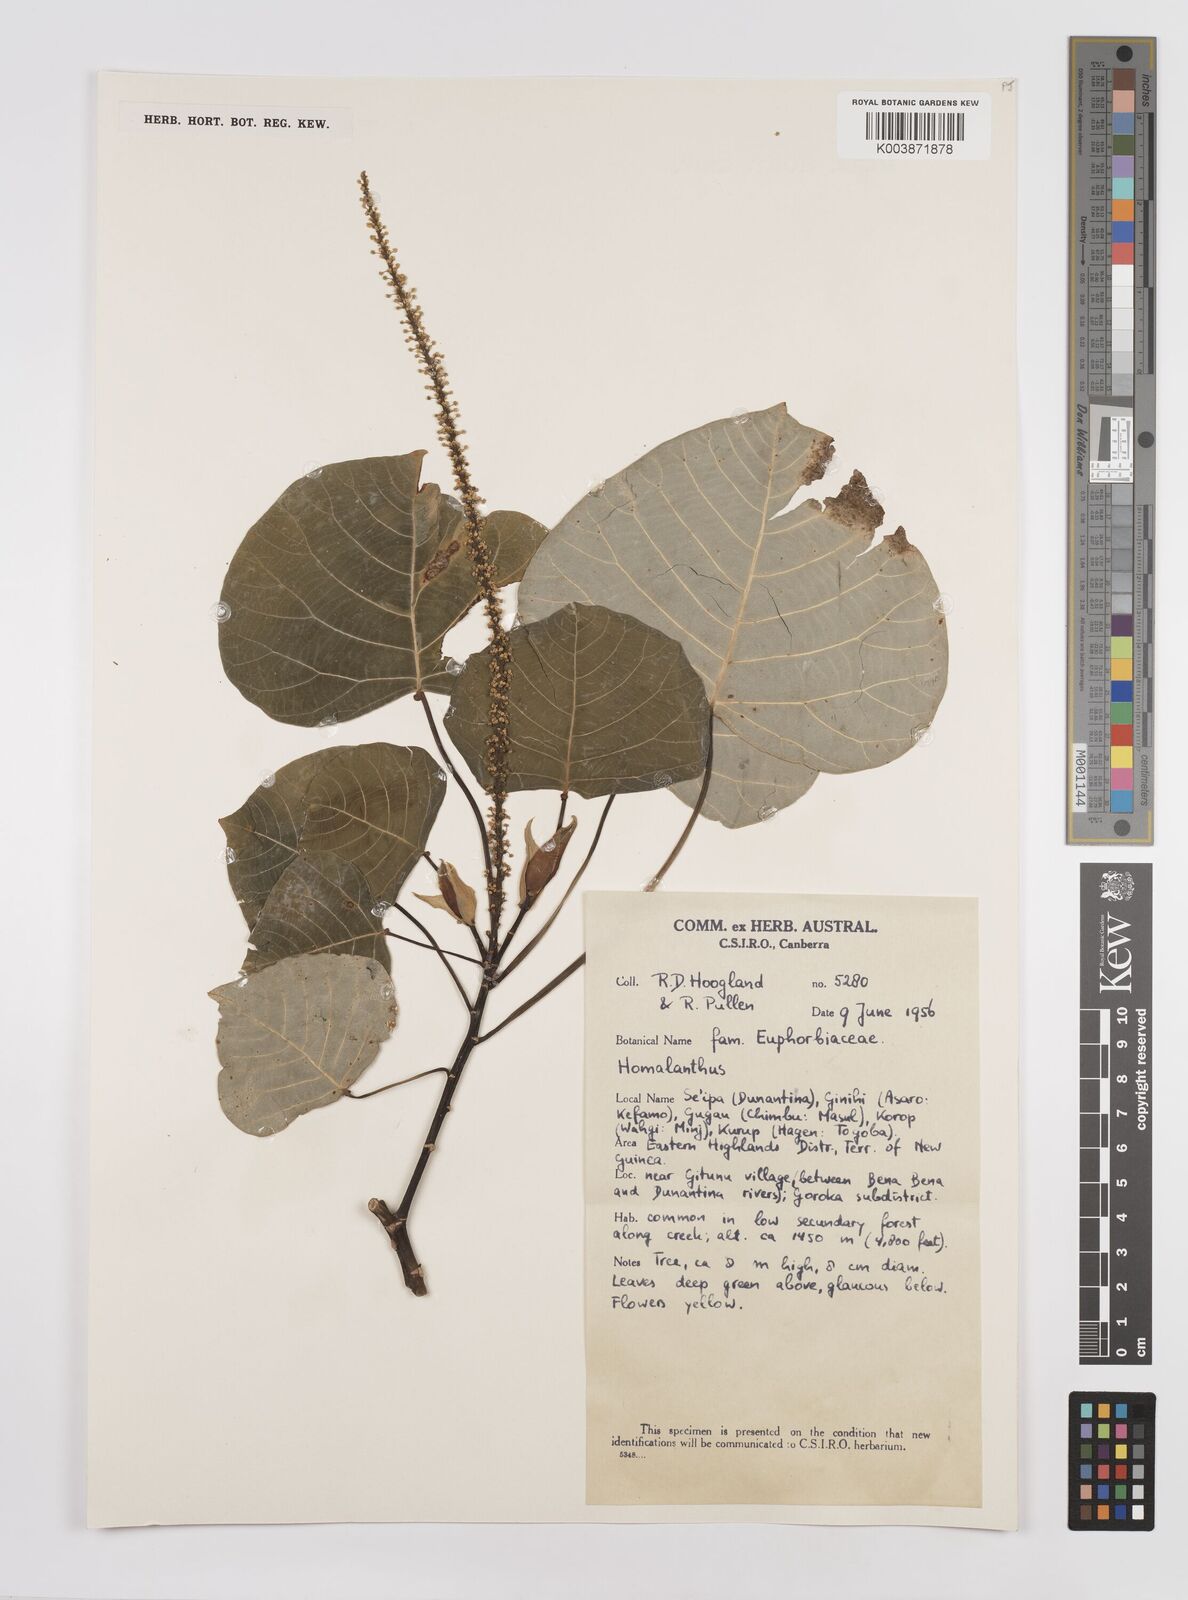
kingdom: Plantae
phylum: Tracheophyta
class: Magnoliopsida
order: Malpighiales
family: Euphorbiaceae
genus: Homalanthus
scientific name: Homalanthus novoguineensis
